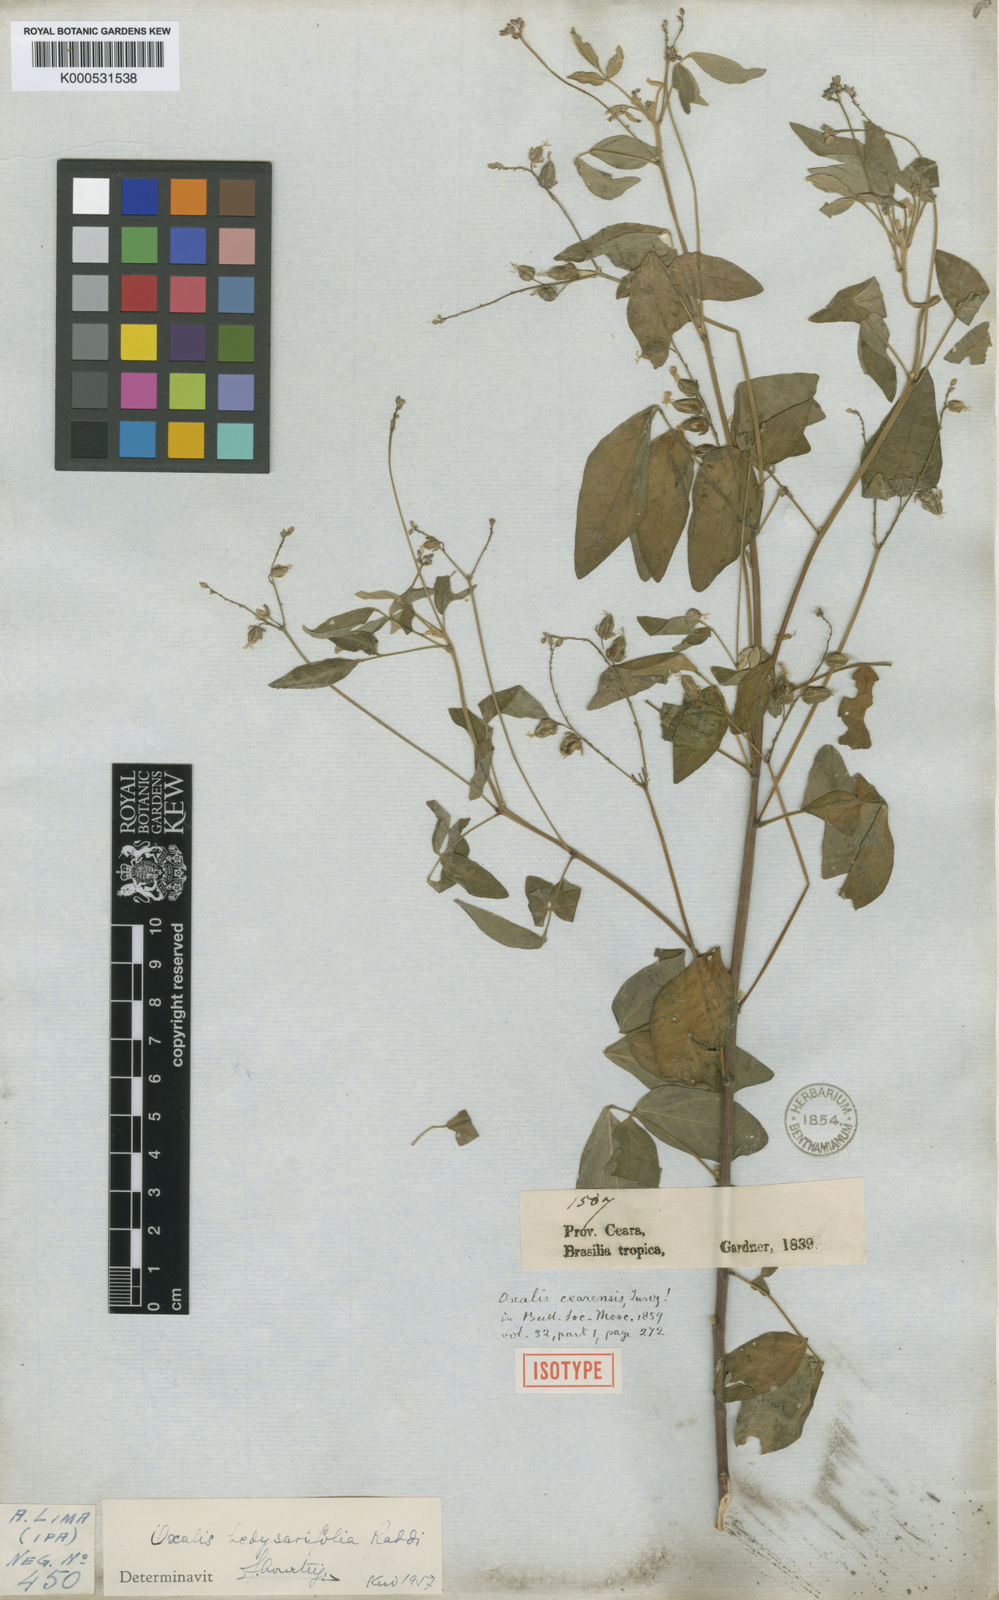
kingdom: Plantae
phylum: Tracheophyta
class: Magnoliopsida
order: Oxalidales
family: Oxalidaceae
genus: Oxalis
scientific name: Oxalis frutescens
